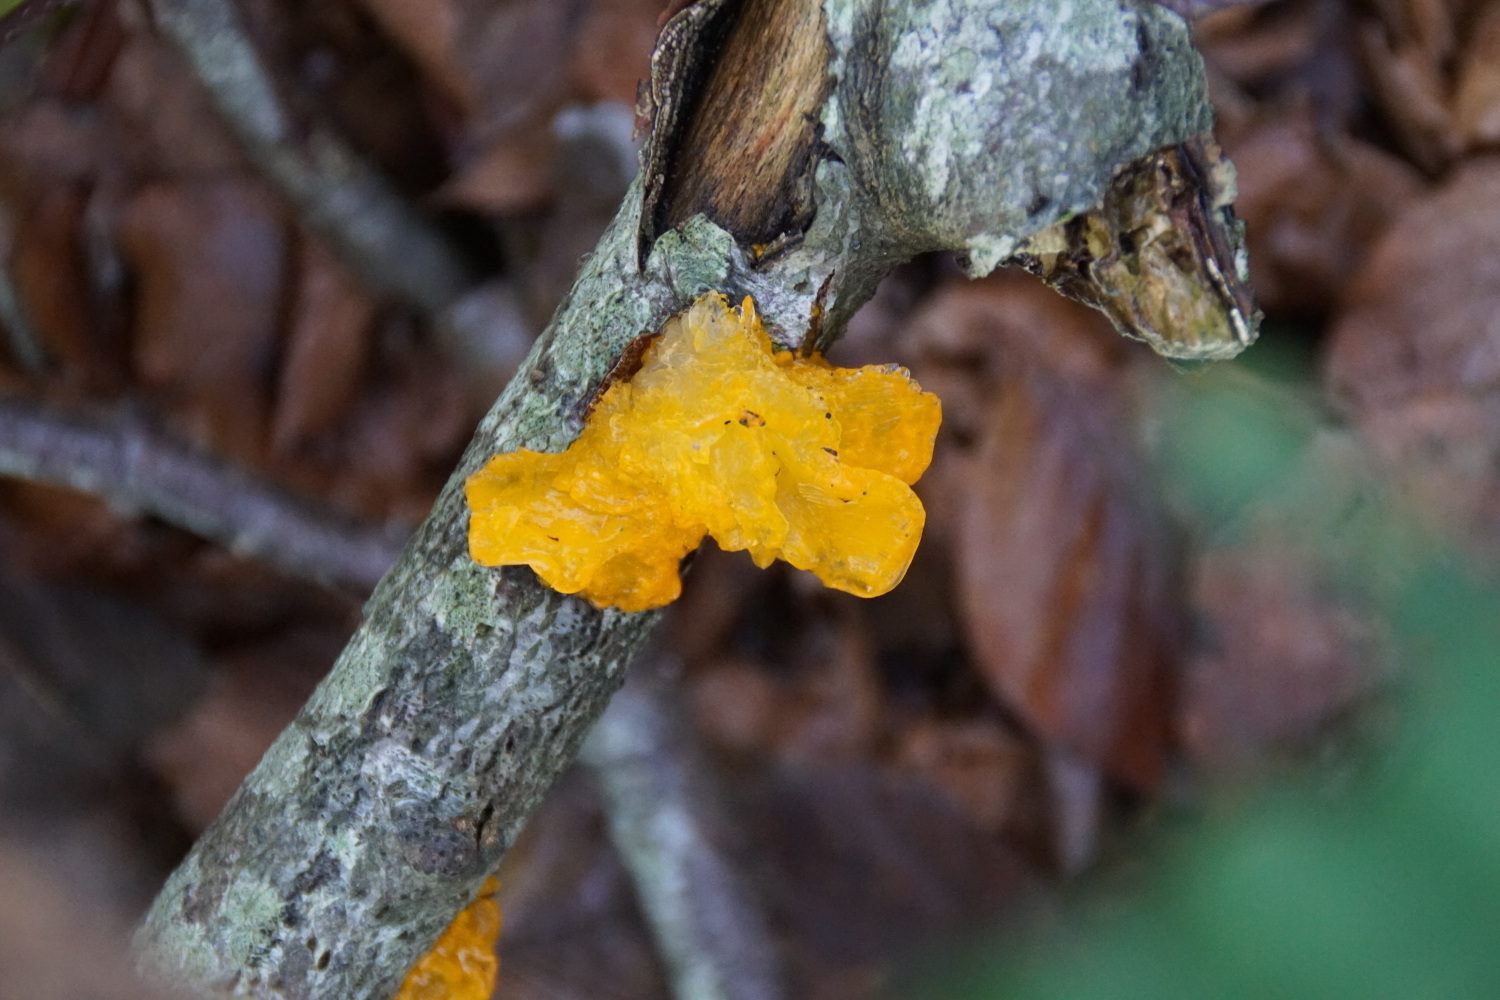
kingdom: Fungi
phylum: Basidiomycota
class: Tremellomycetes
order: Tremellales
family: Tremellaceae
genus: Tremella
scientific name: Tremella mesenterica
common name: gul bævresvamp
